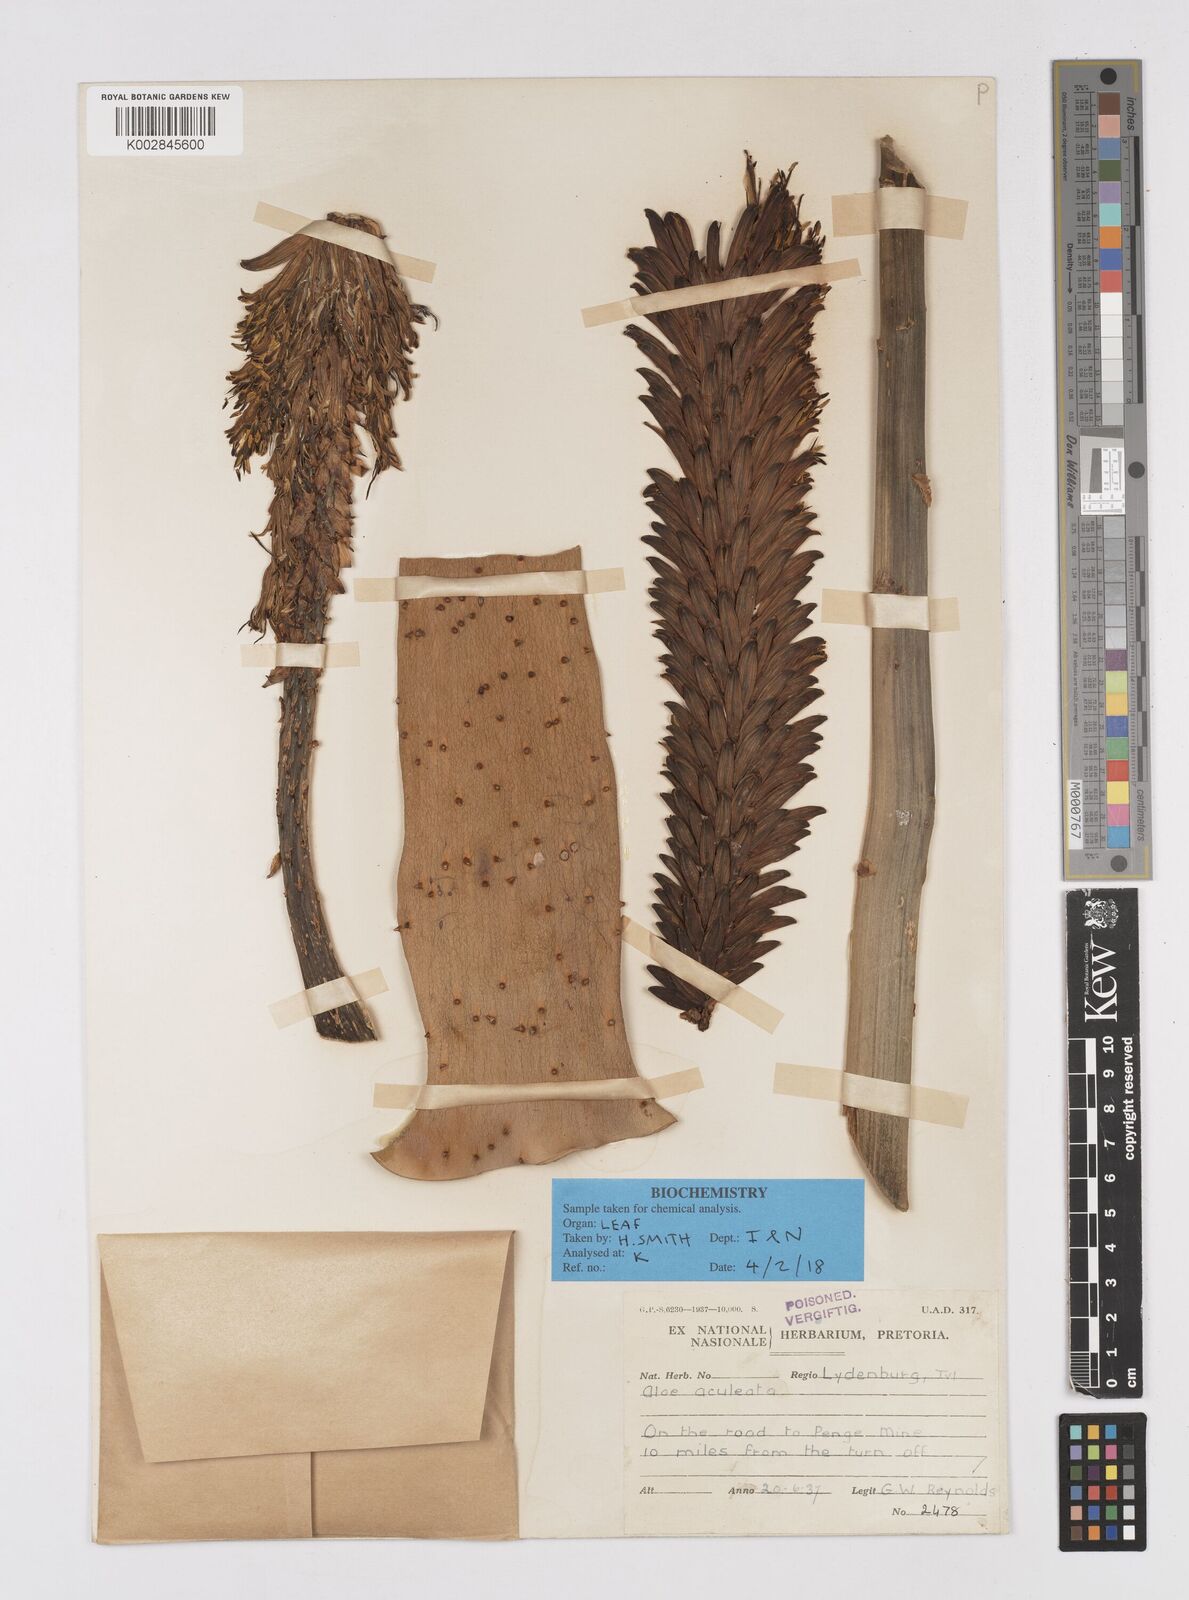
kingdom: Plantae
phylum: Tracheophyta
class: Liliopsida
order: Asparagales
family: Asphodelaceae
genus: Aloe
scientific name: Aloe aculeata
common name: Red hot poker aloe
